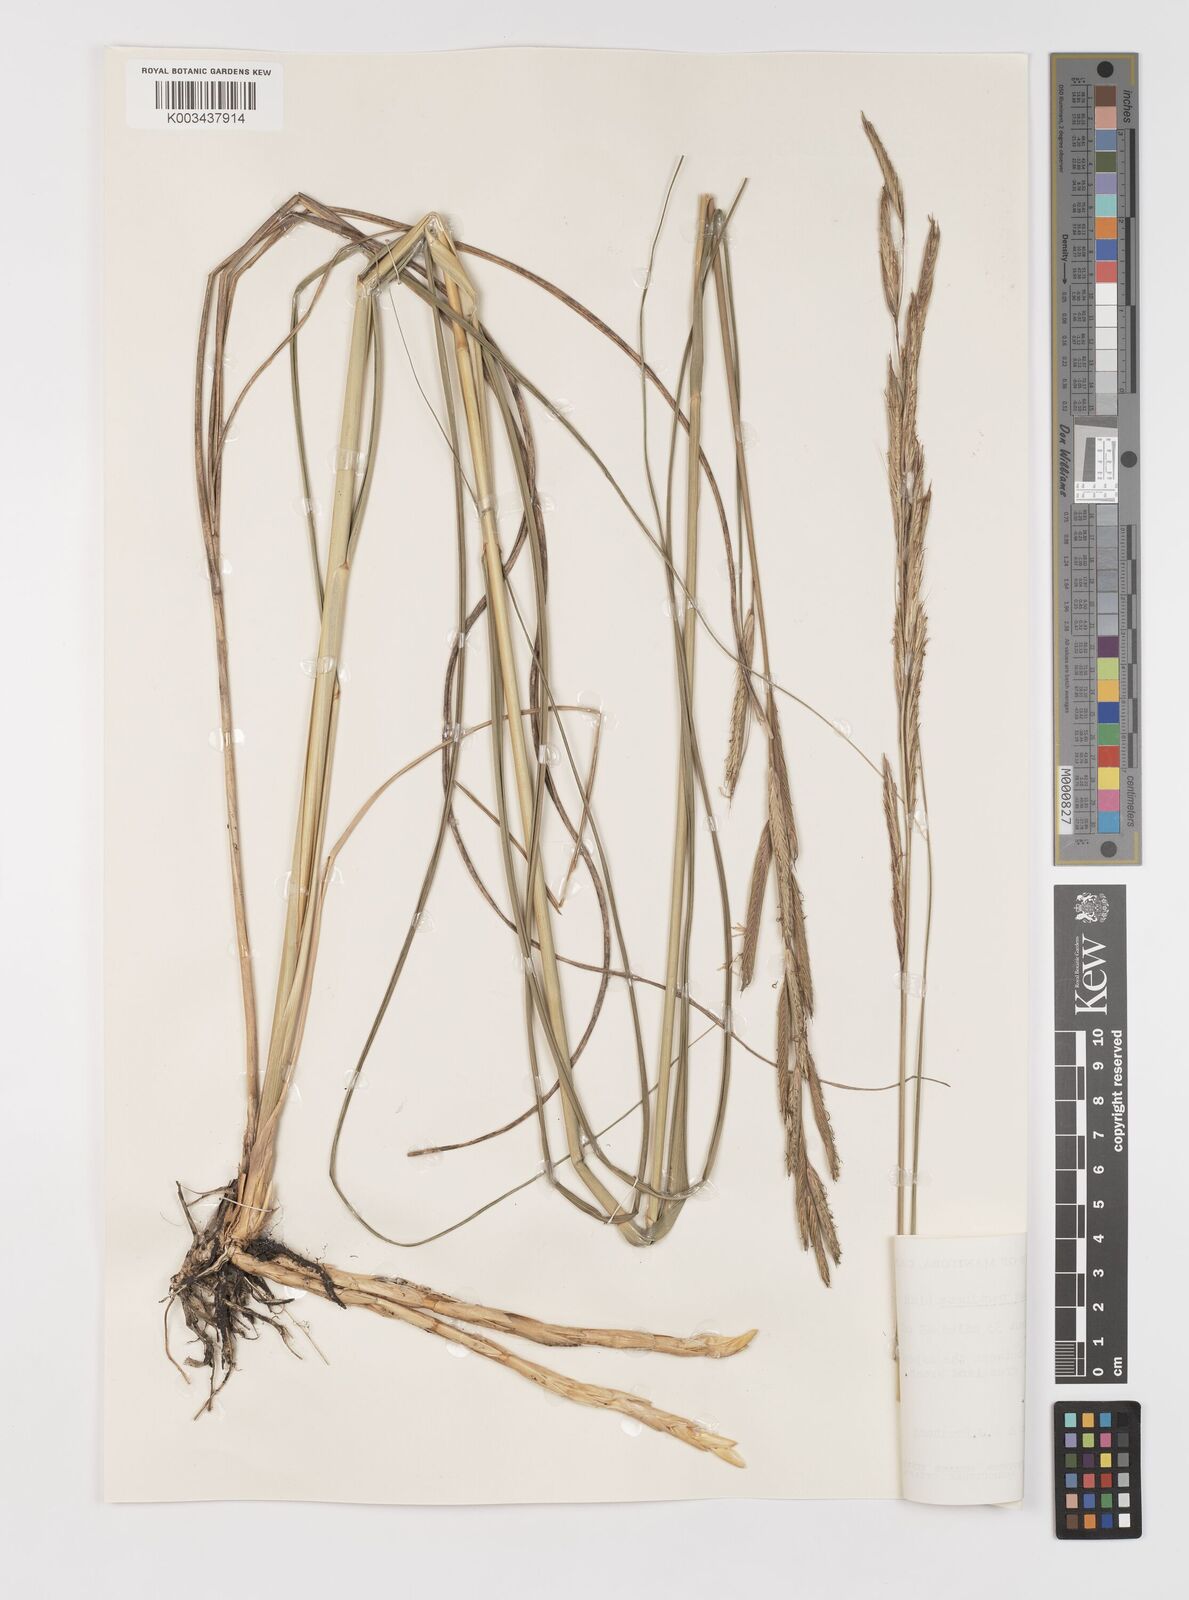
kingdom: Plantae
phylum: Tracheophyta
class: Liliopsida
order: Poales
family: Poaceae
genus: Sporobolus
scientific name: Sporobolus michauxianus
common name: Freshwater cordgrass
